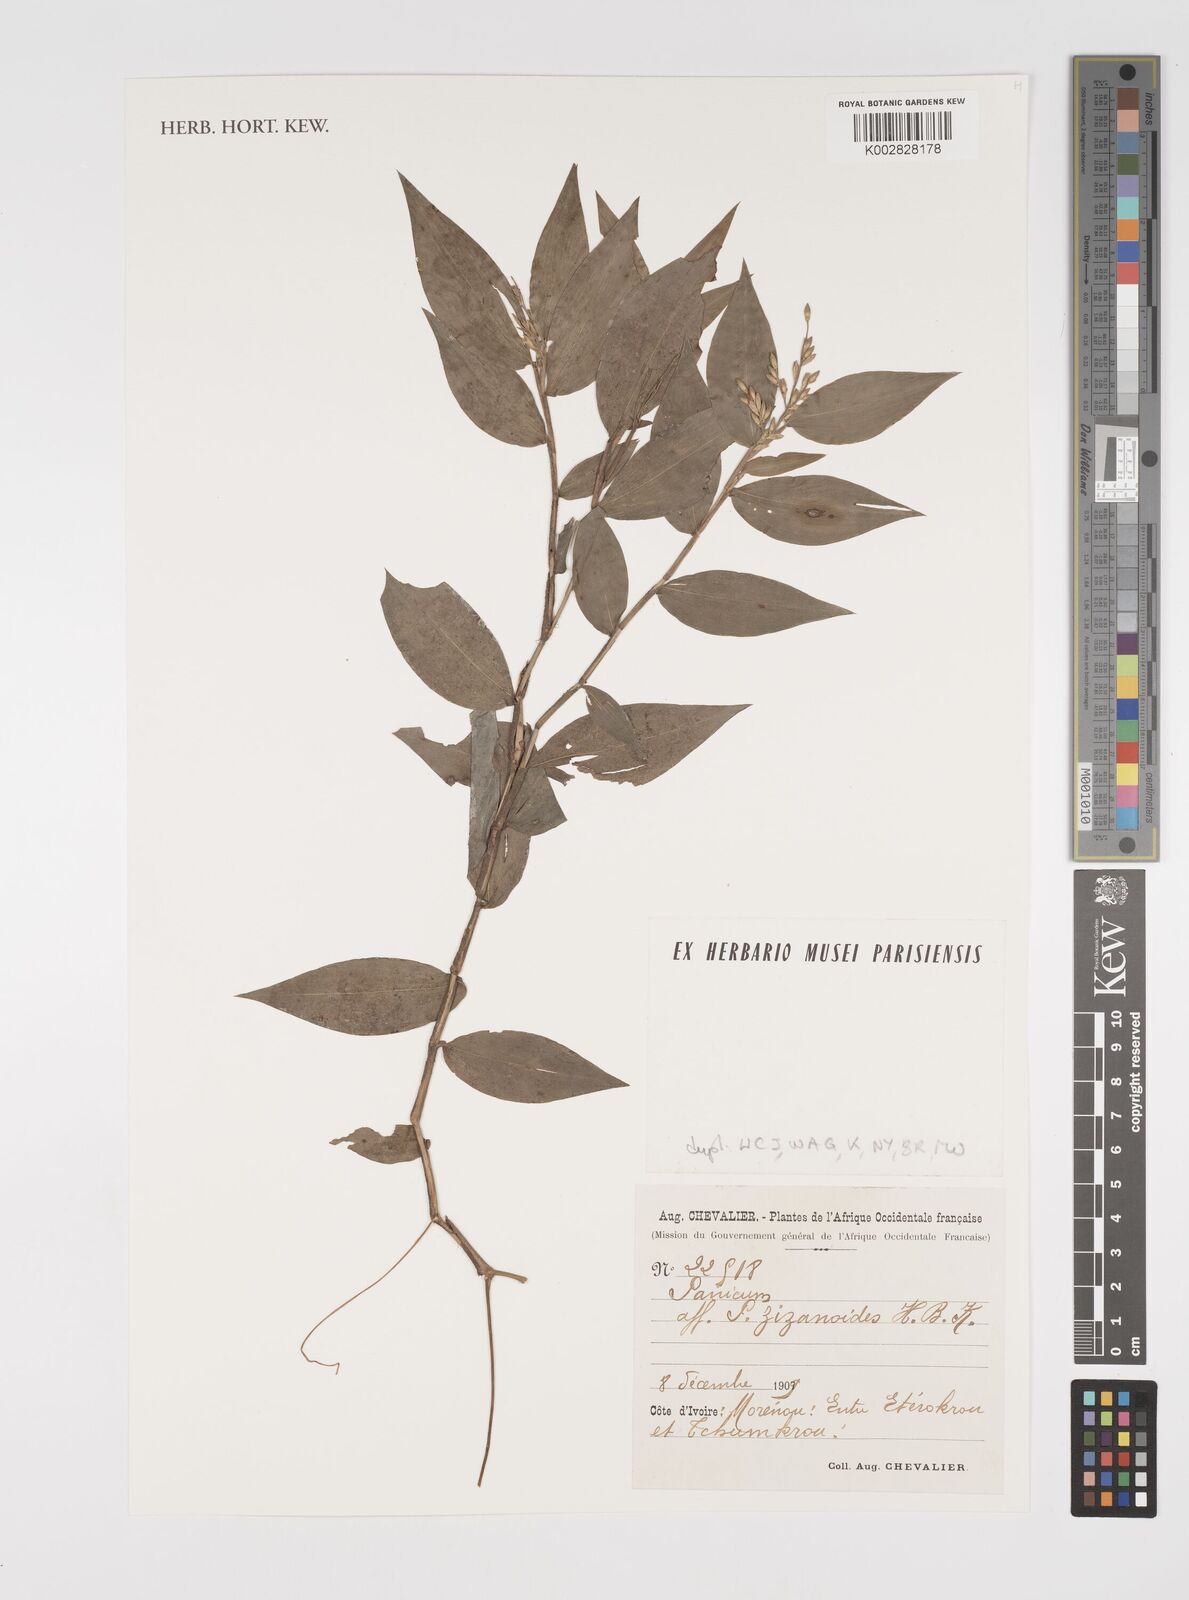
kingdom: Plantae
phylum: Tracheophyta
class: Liliopsida
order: Poales
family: Poaceae
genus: Acroceras
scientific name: Acroceras zizanioides
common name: Oat grass
